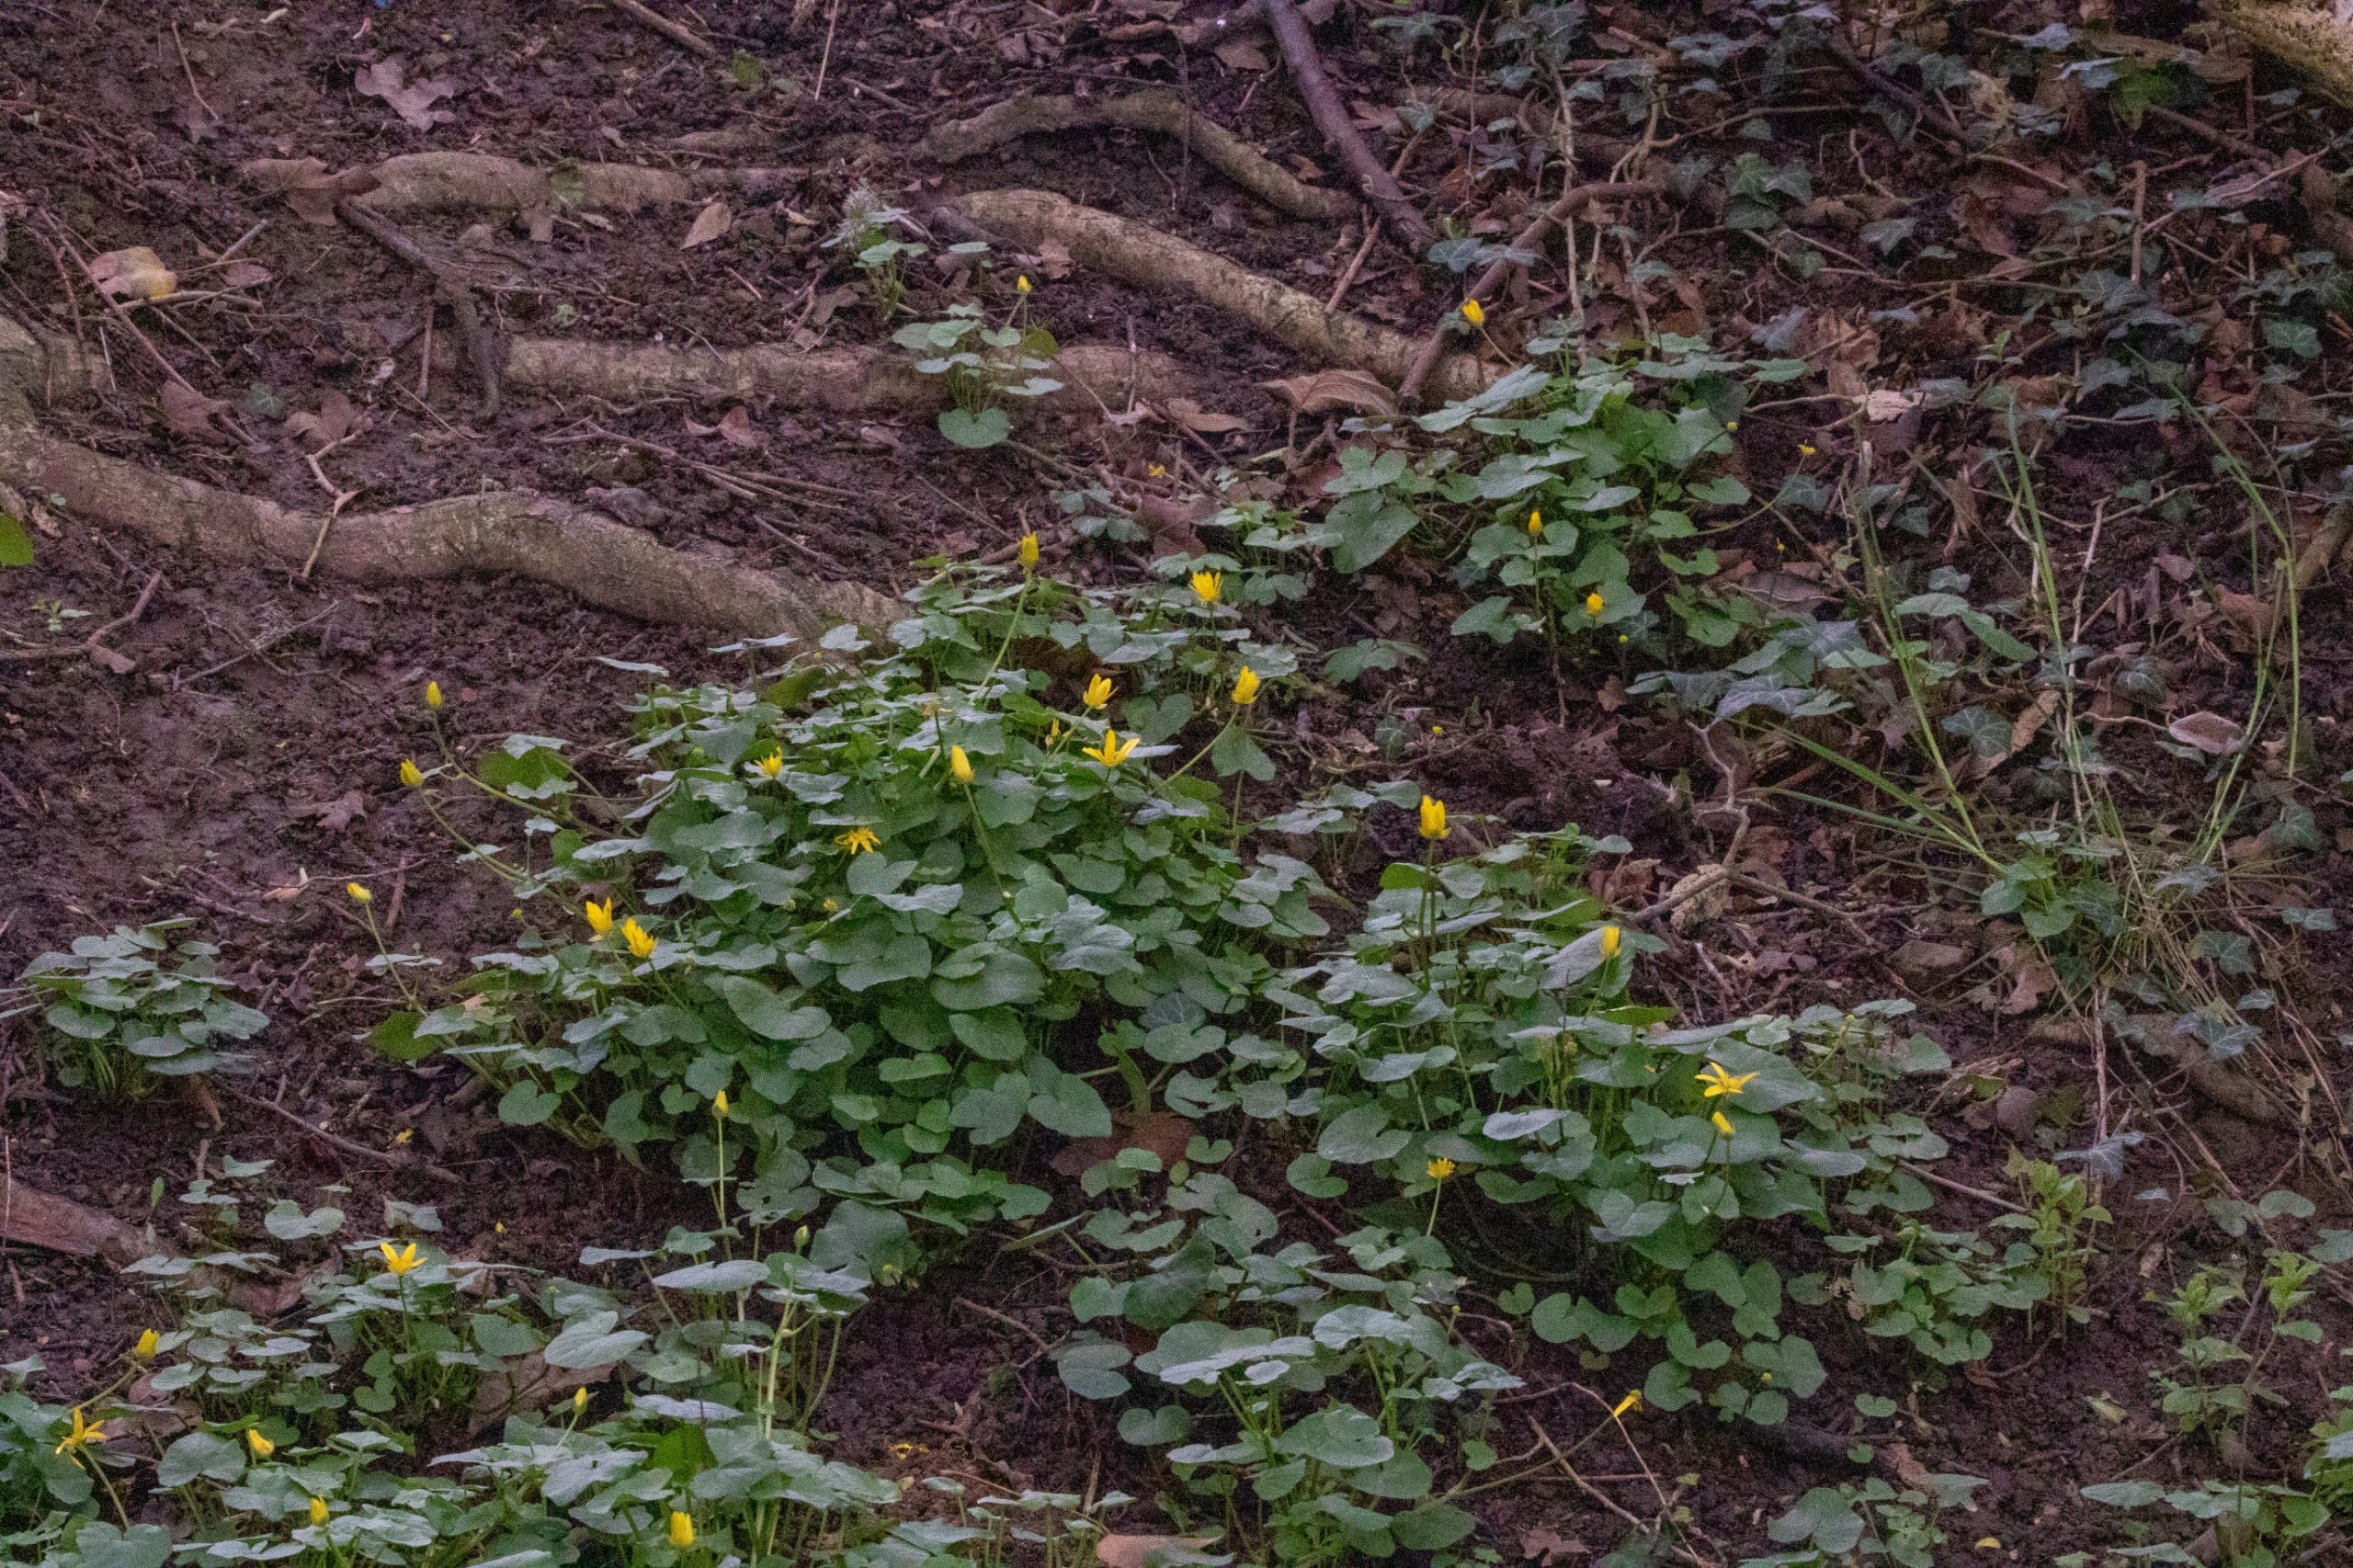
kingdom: Plantae
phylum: Tracheophyta
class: Magnoliopsida
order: Ranunculales
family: Ranunculaceae
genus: Ficaria
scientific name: Ficaria verna
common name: Vorterod
